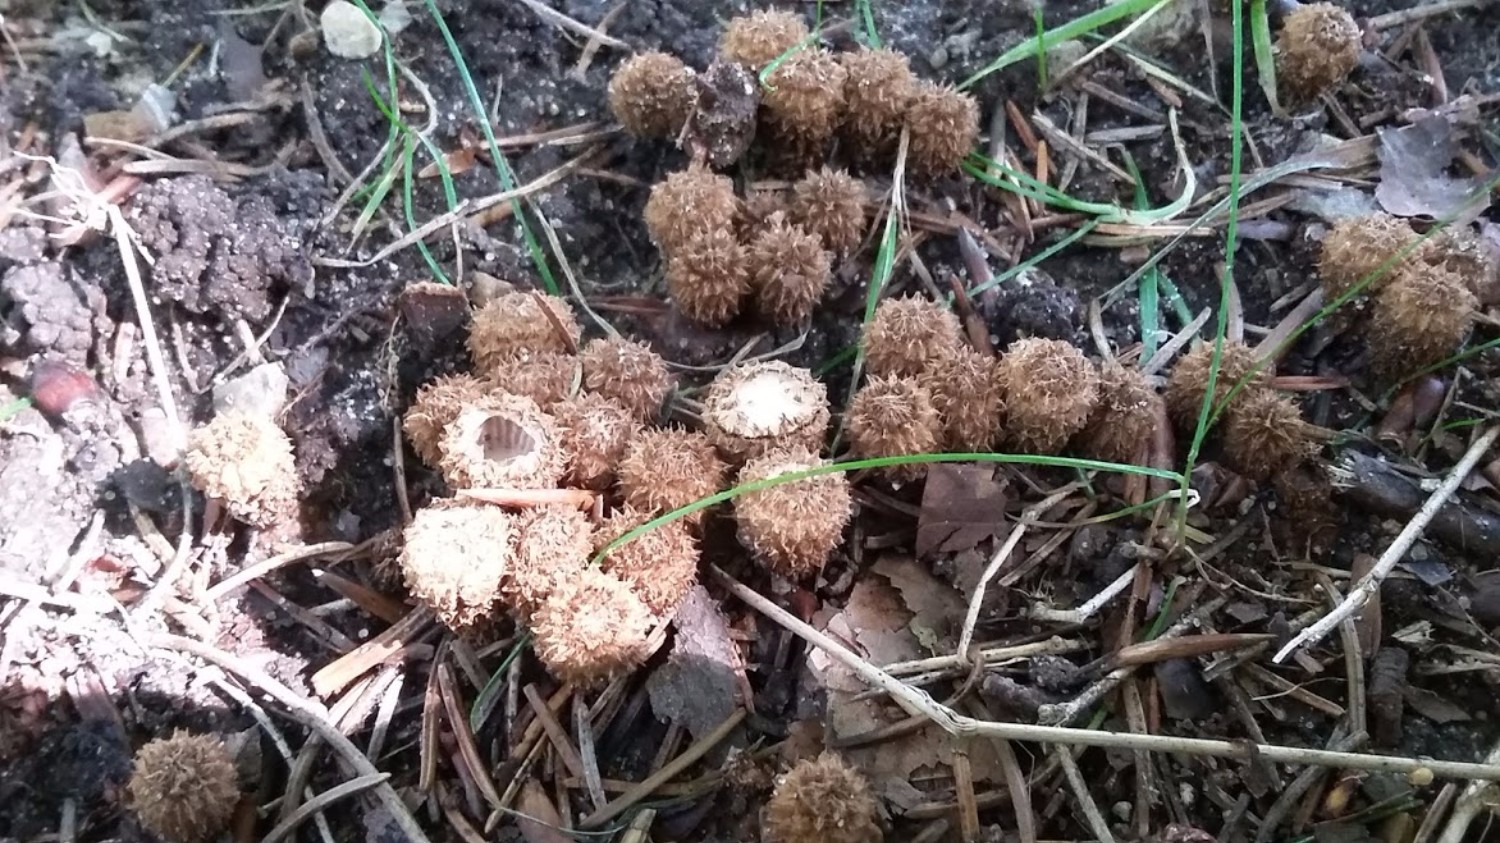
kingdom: Fungi
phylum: Basidiomycota
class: Agaricomycetes
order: Agaricales
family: Agaricaceae
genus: Cyathus
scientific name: Cyathus striatus
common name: stribet redesvamp
